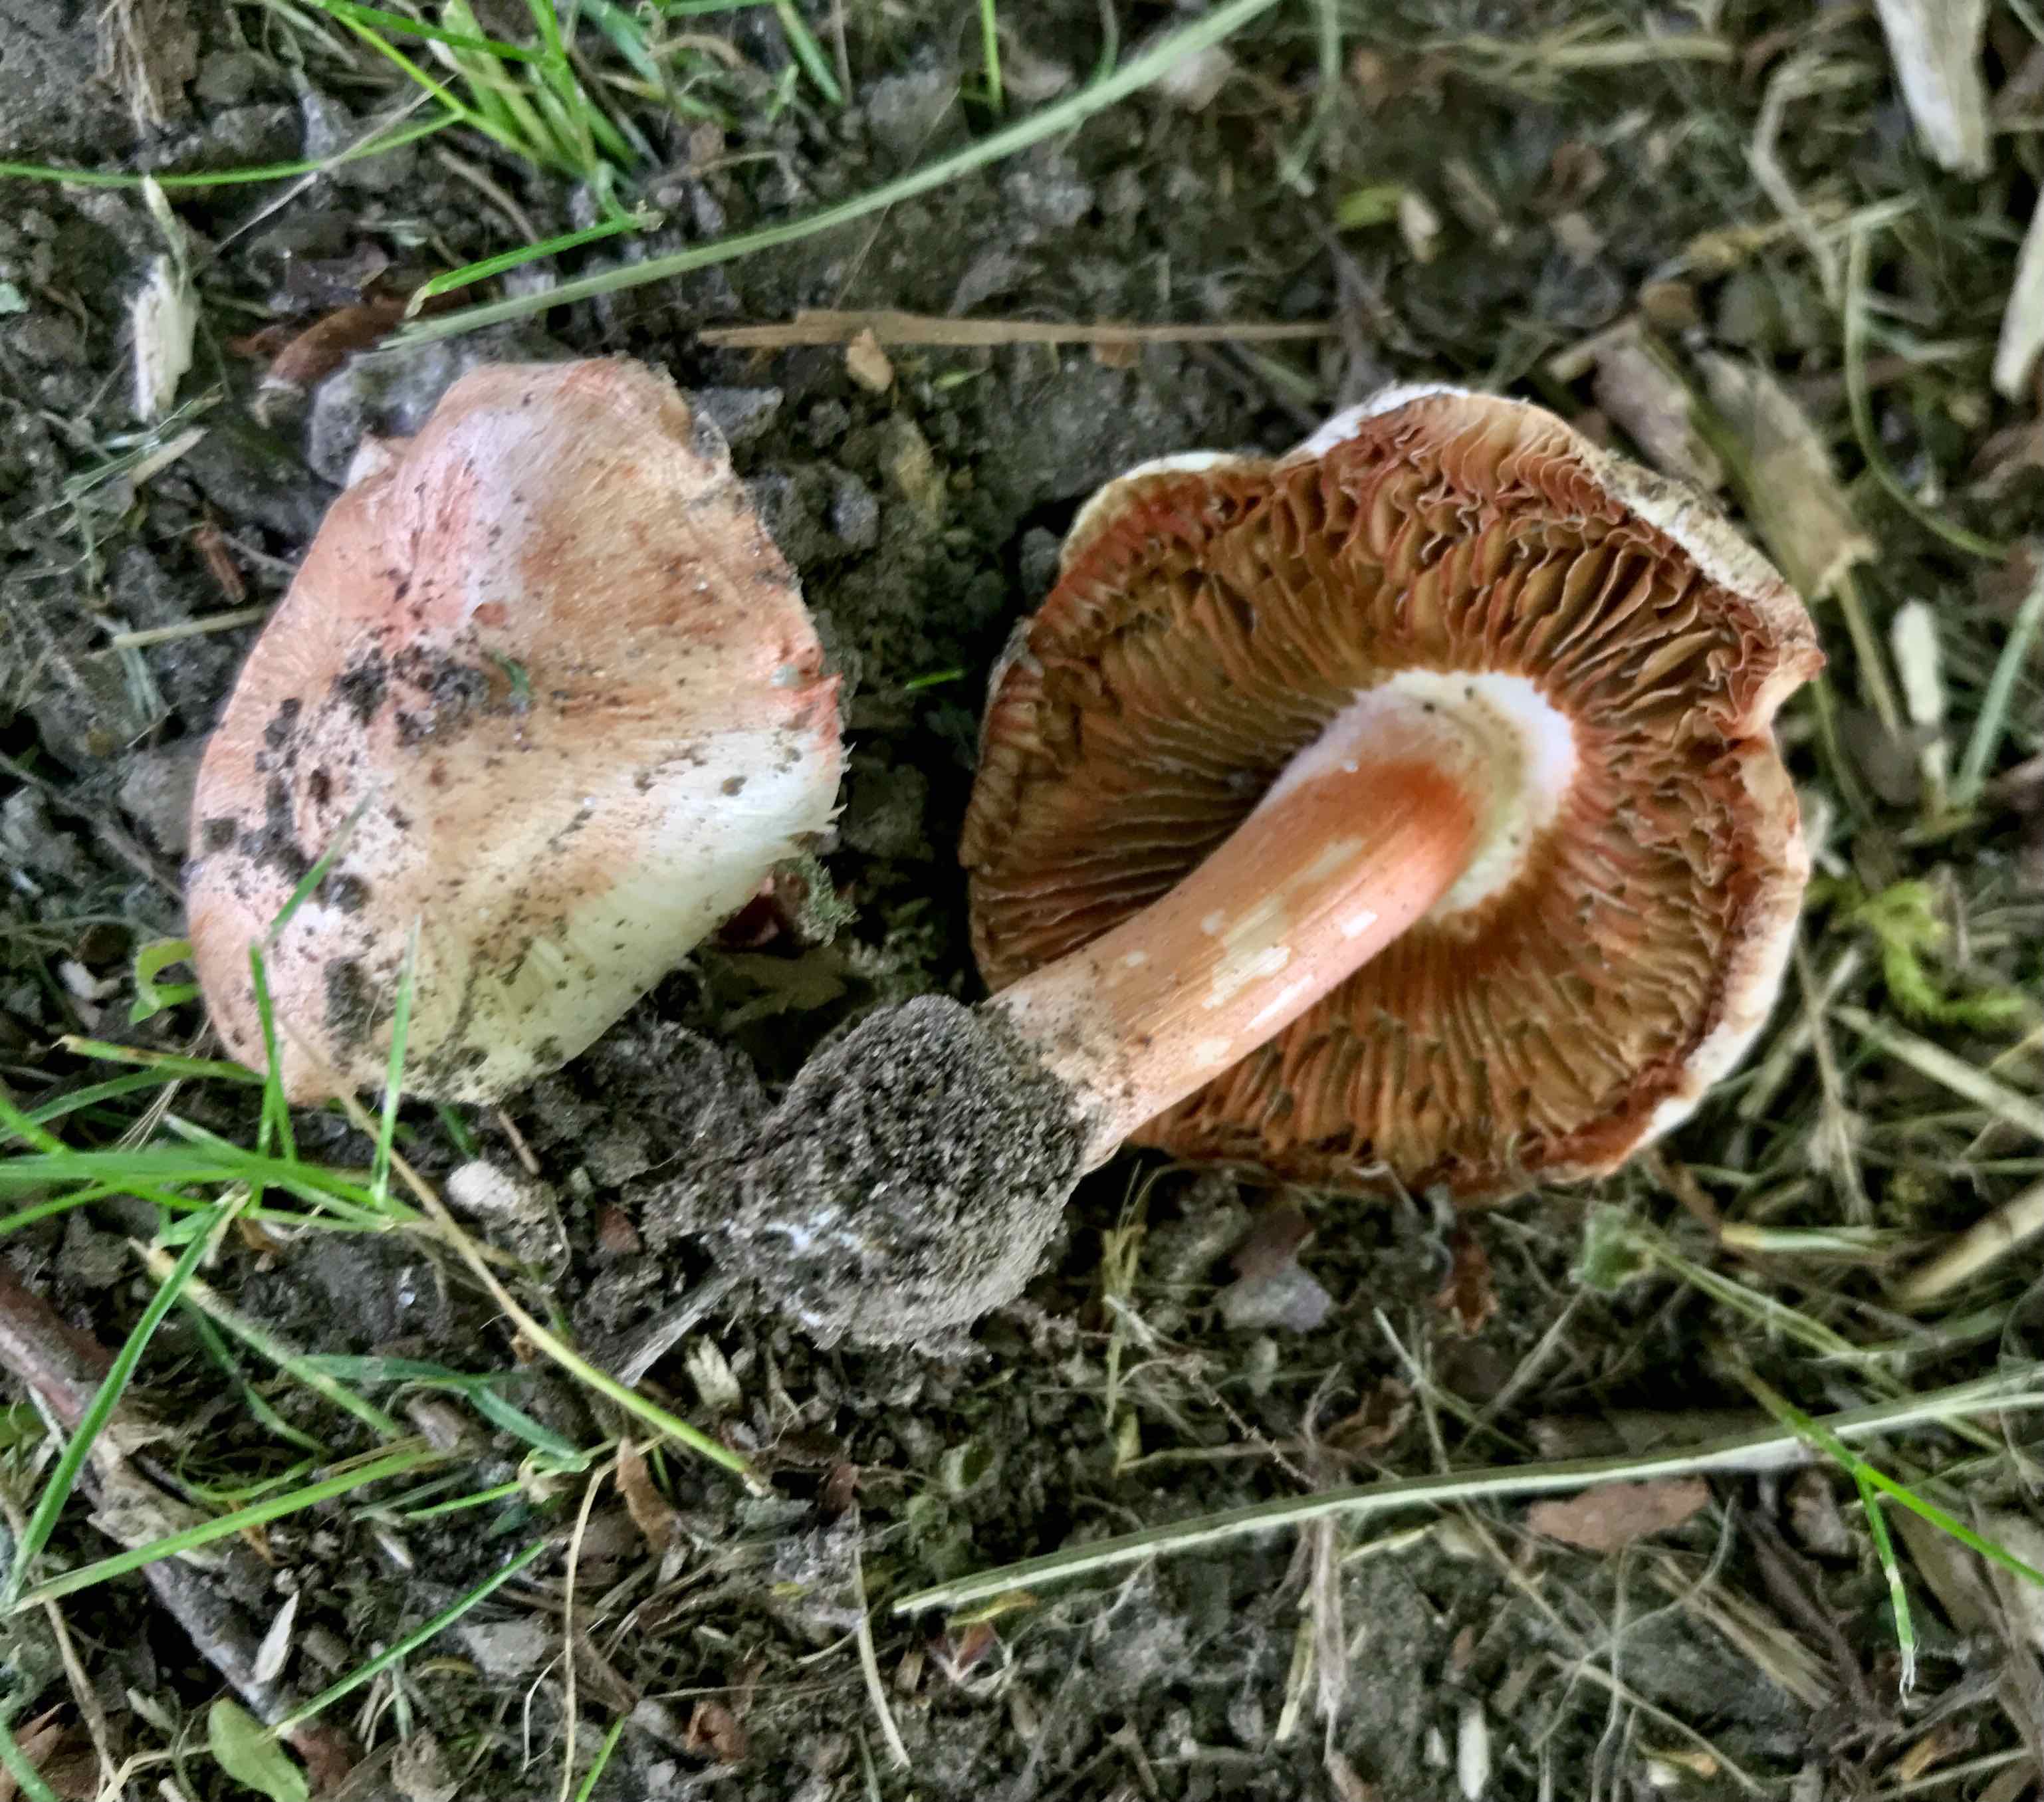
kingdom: Fungi
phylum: Basidiomycota
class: Agaricomycetes
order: Agaricales
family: Inocybaceae
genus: Inosperma
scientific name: Inosperma erubescens
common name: giftig trævlhat
